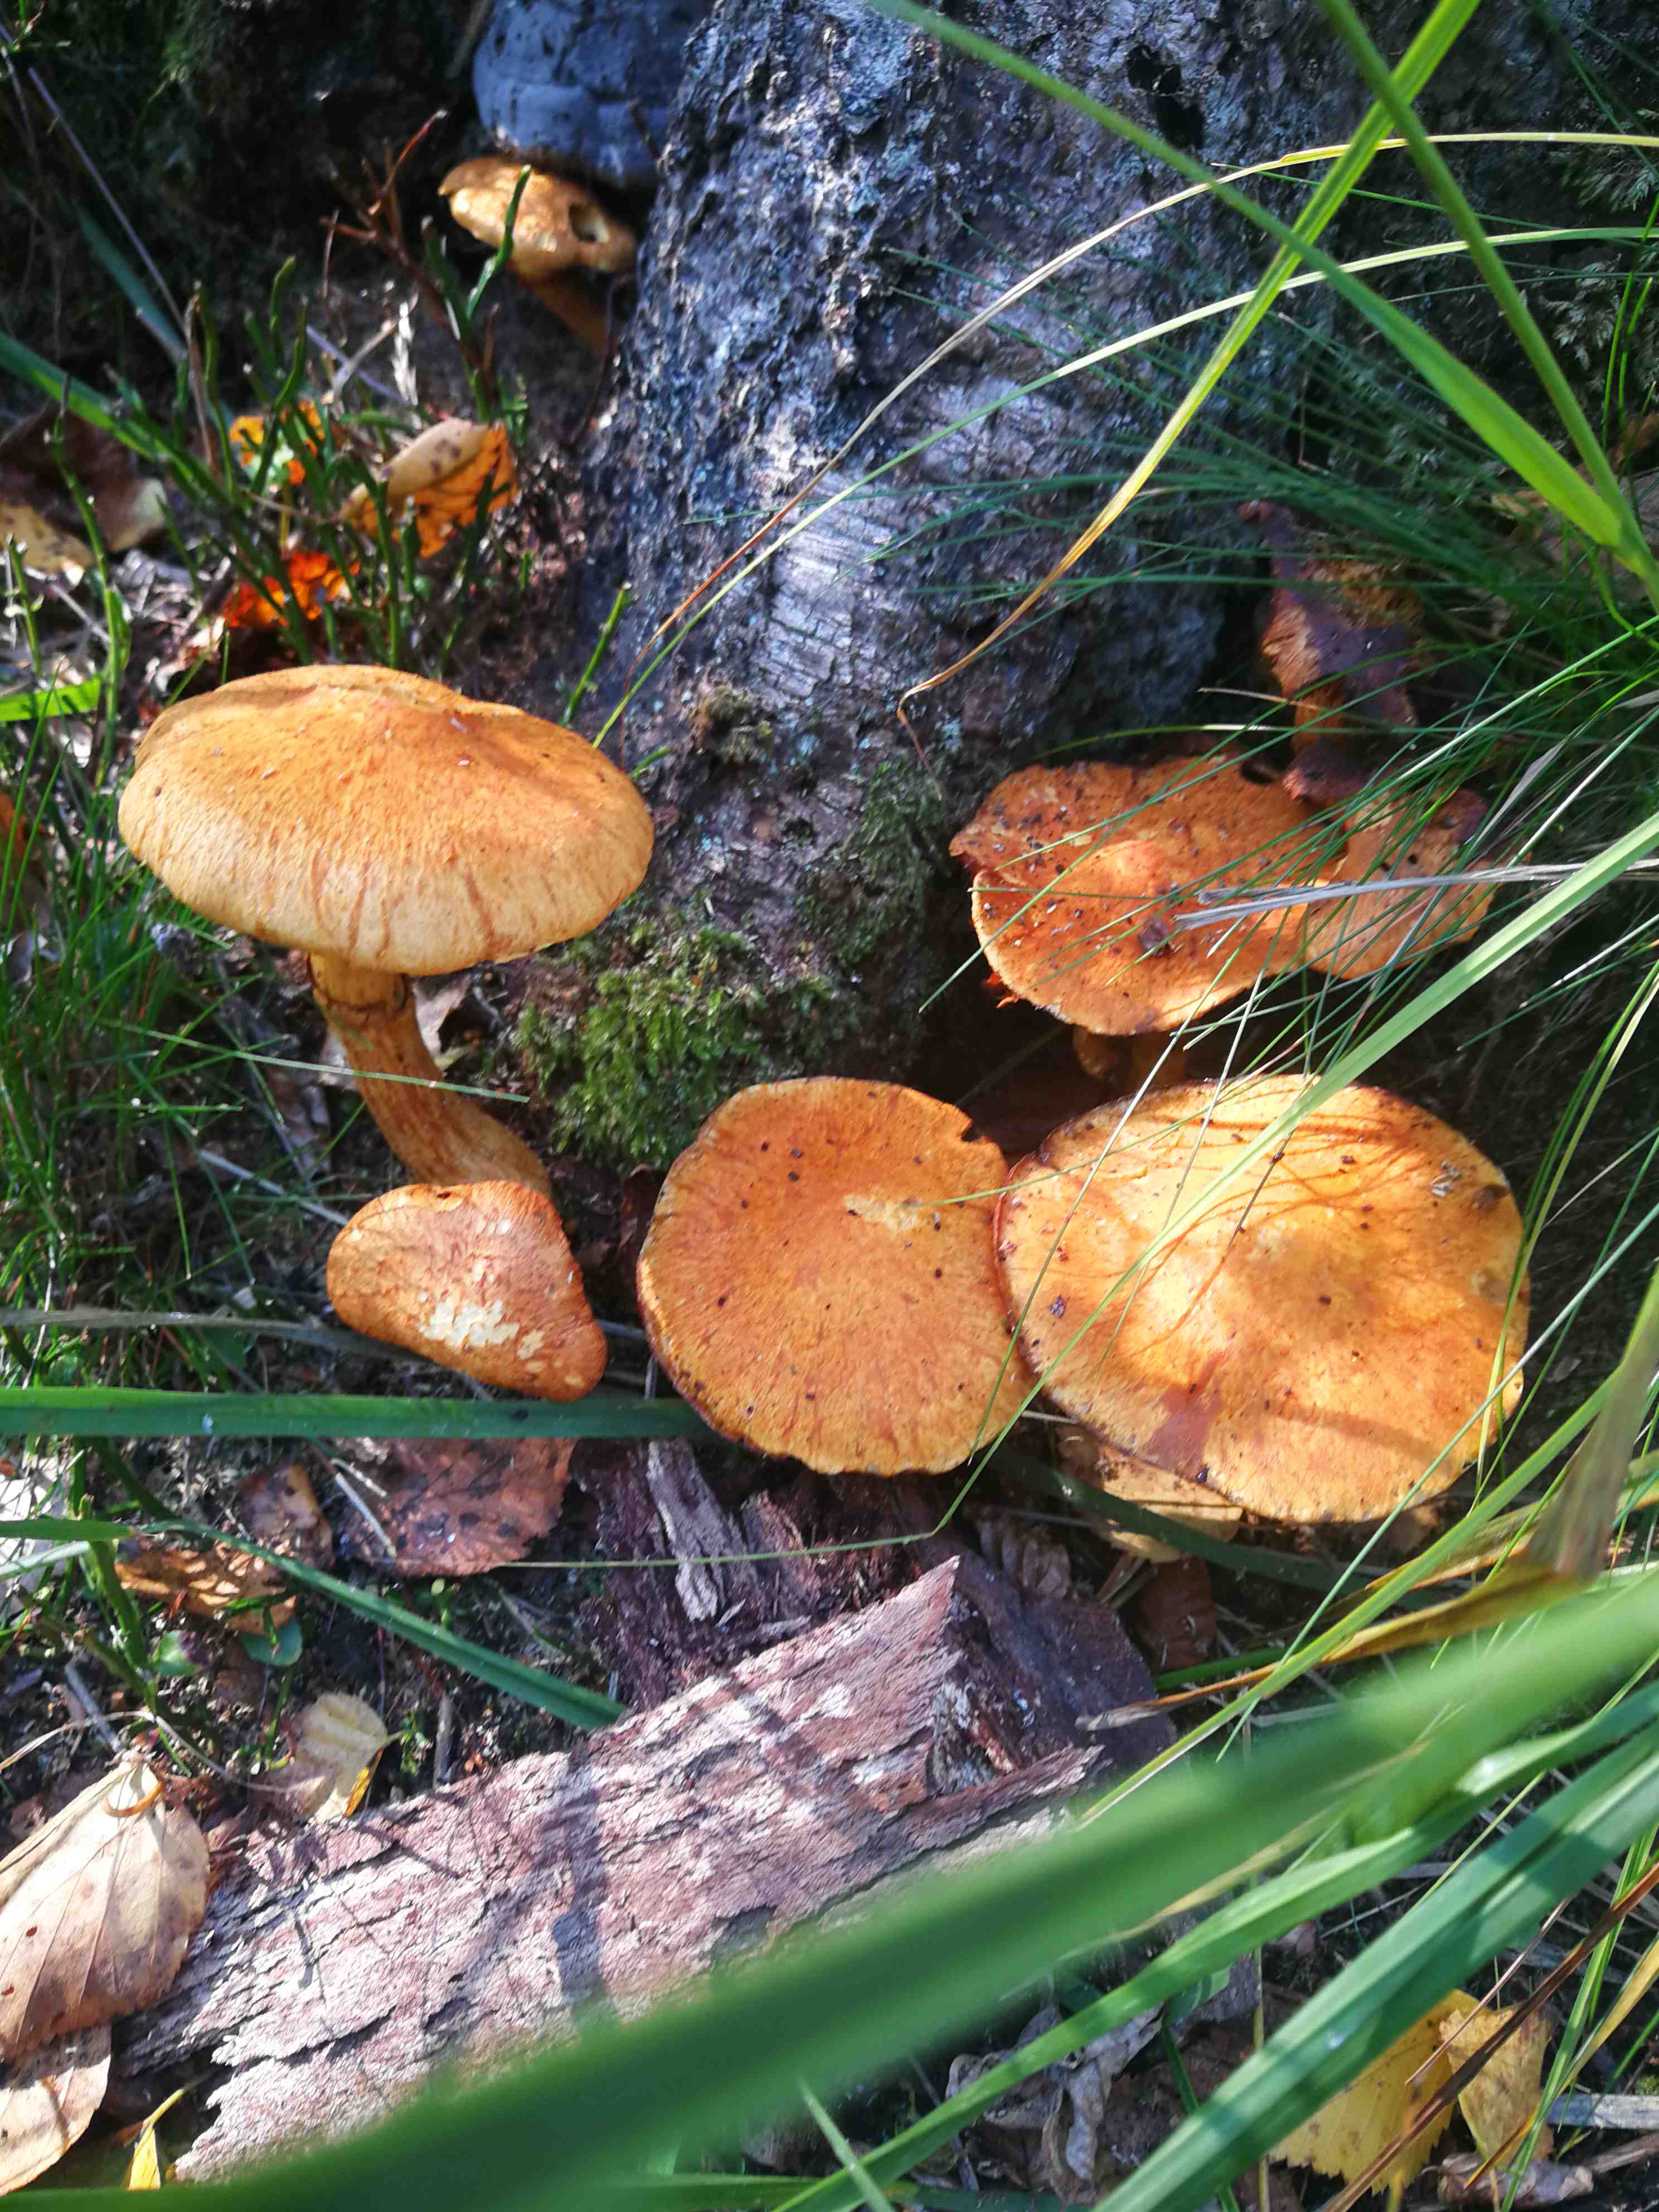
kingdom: Fungi
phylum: Basidiomycota
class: Agaricomycetes
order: Agaricales
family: Hymenogastraceae
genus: Gymnopilus
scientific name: Gymnopilus spectabilis
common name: fibret flammehat
